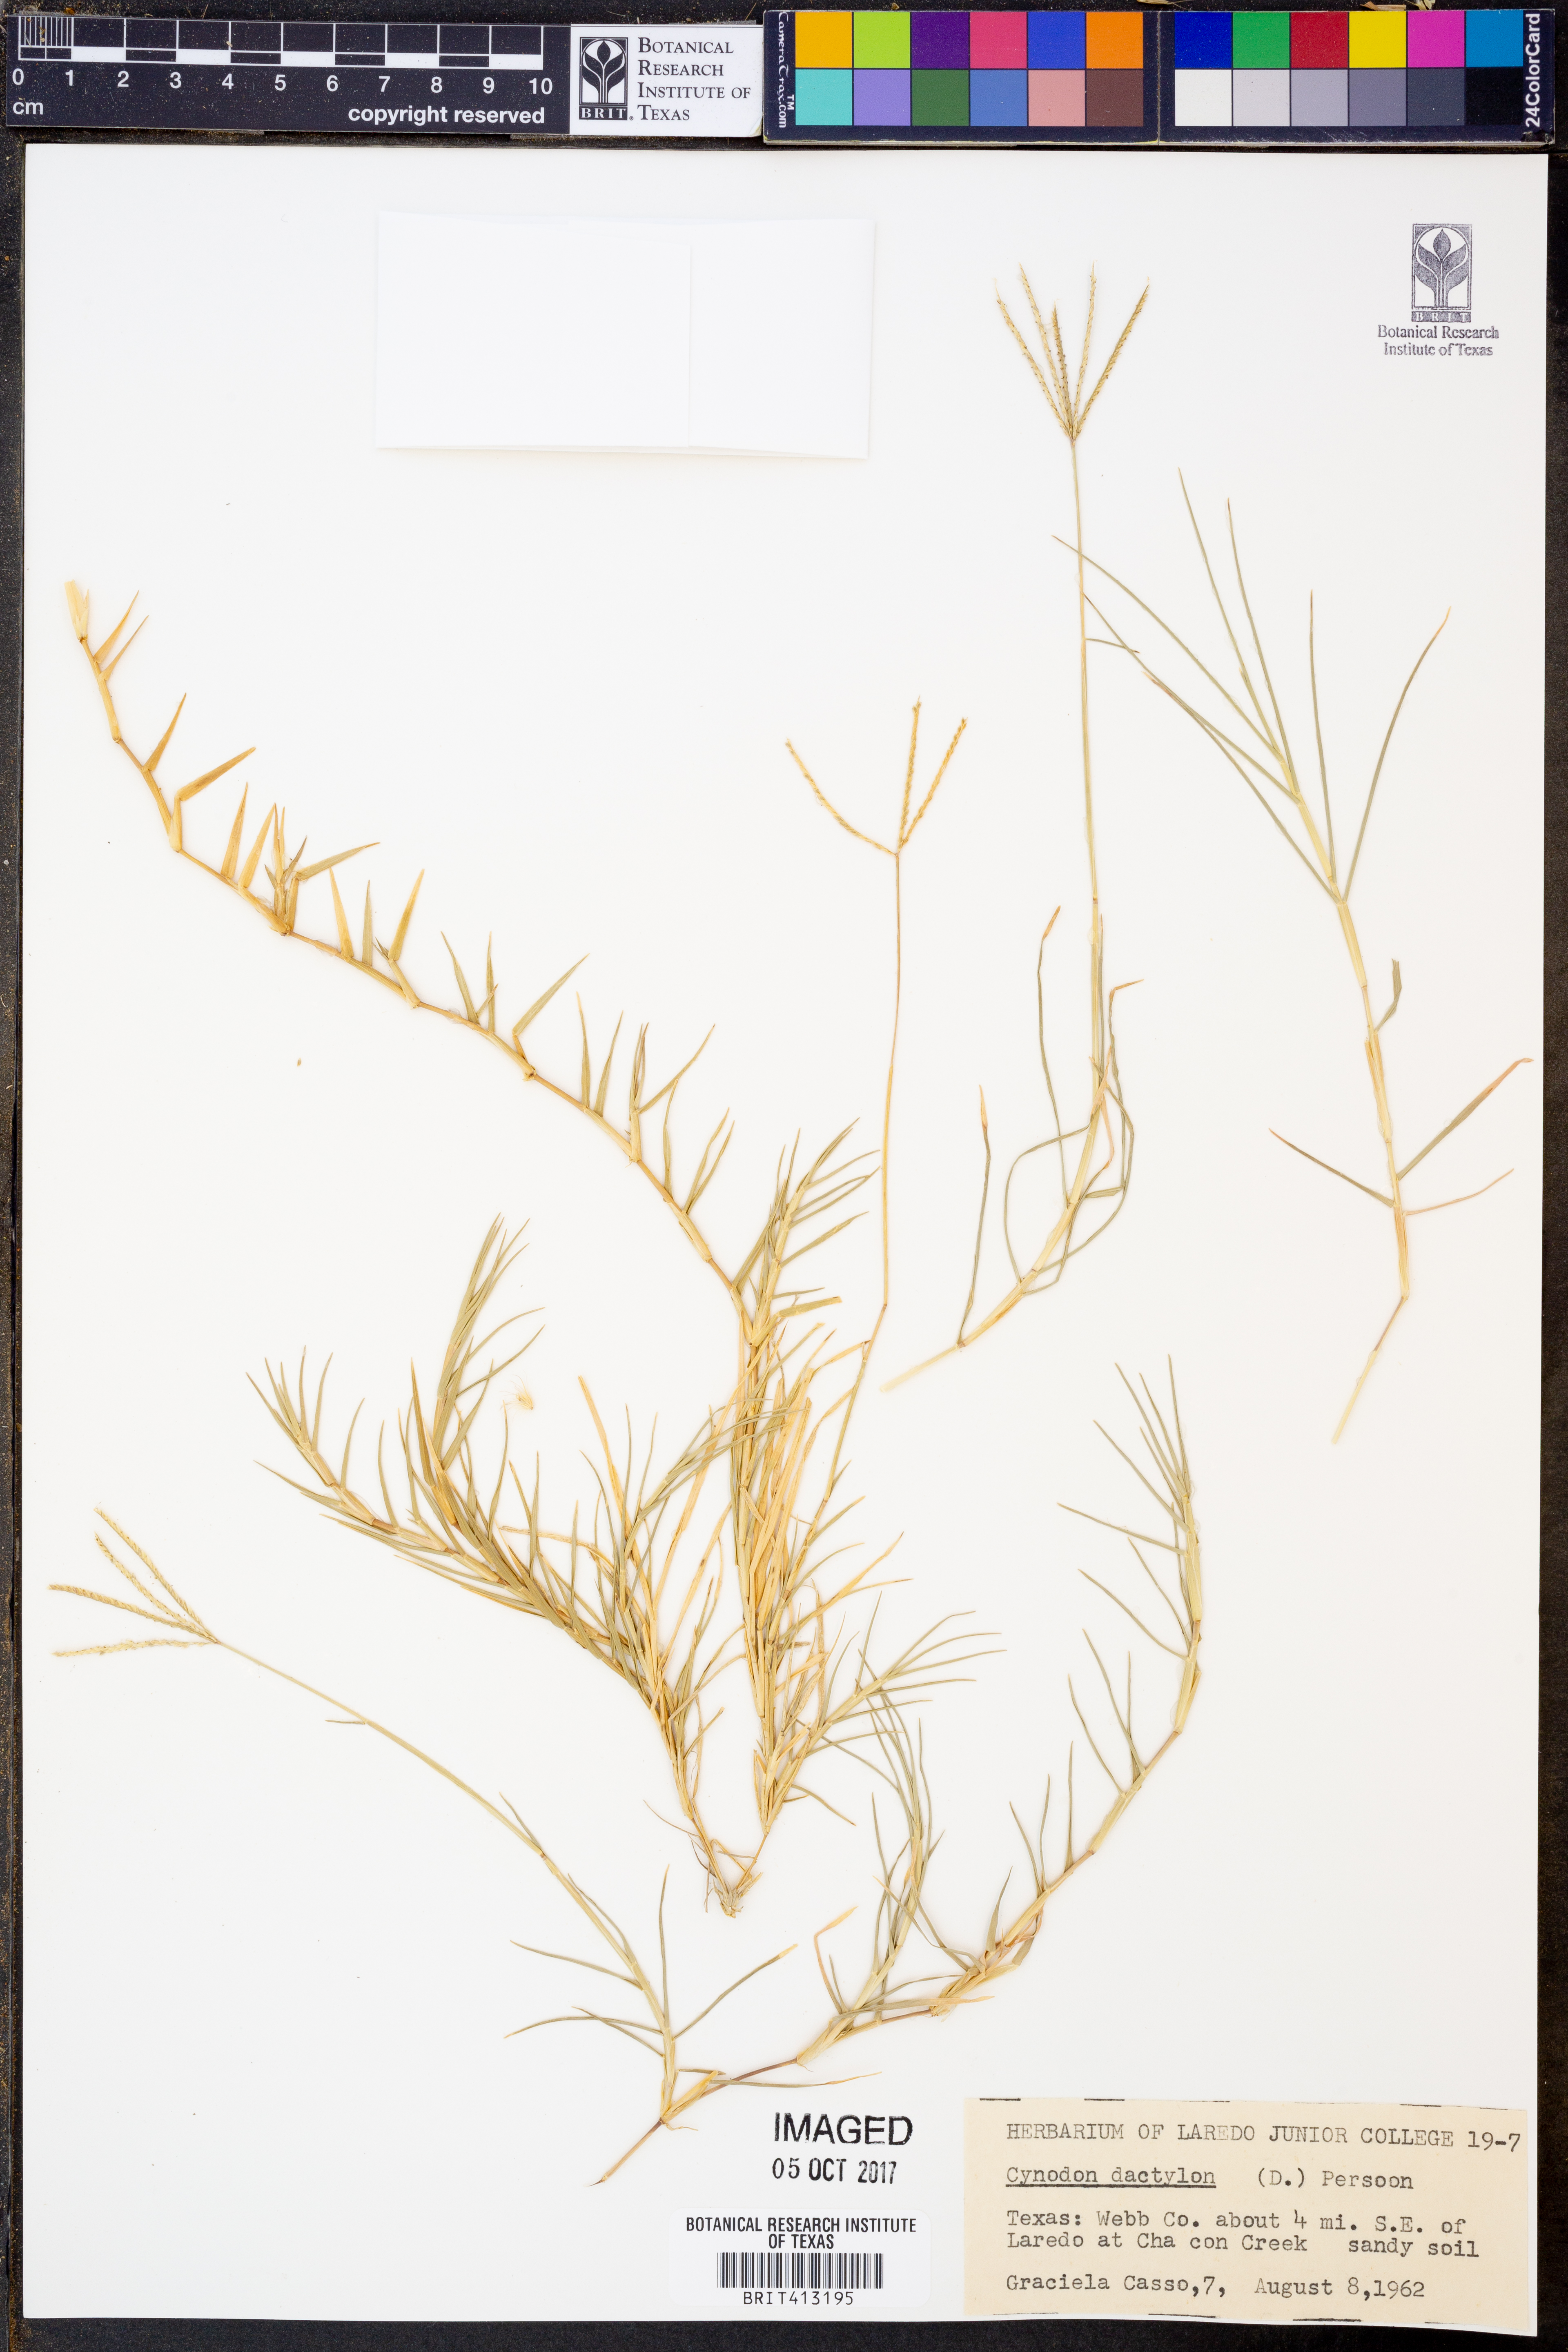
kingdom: Plantae
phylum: Tracheophyta
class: Liliopsida
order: Poales
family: Poaceae
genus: Cynodon
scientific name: Cynodon dactylon
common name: Bermuda grass
